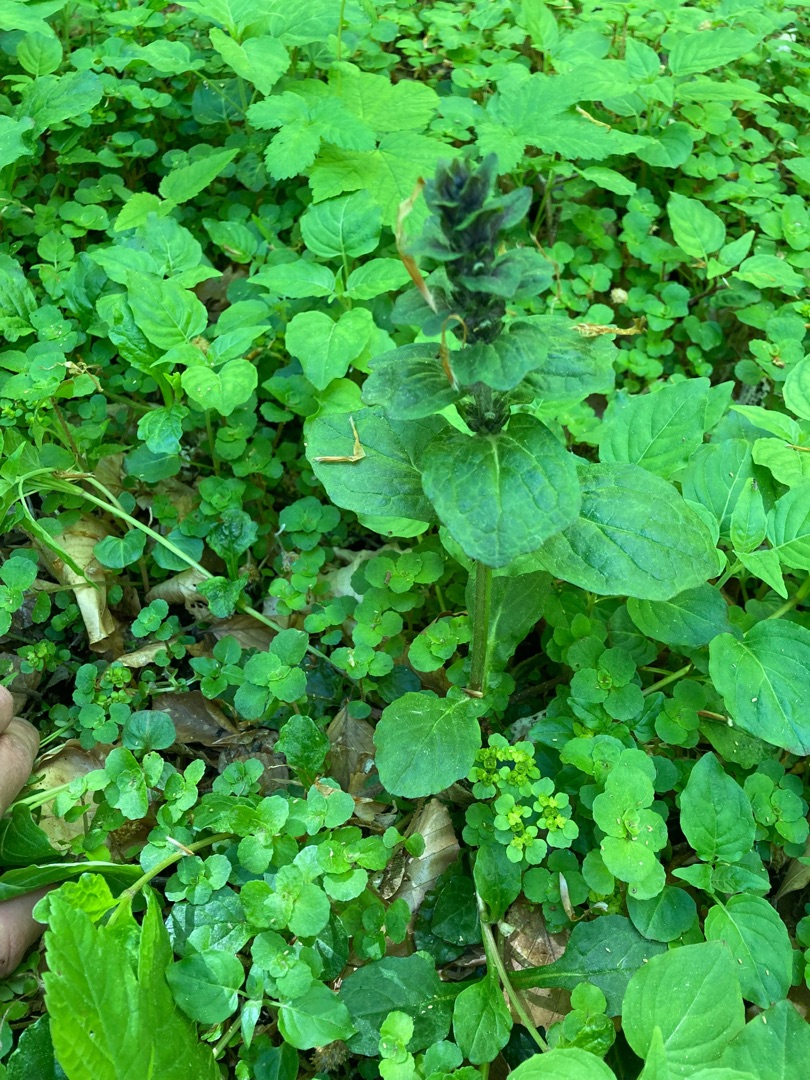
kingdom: Plantae
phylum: Tracheophyta
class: Magnoliopsida
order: Lamiales
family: Lamiaceae
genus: Ajuga
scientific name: Ajuga reptans
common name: Krybende læbeløs
